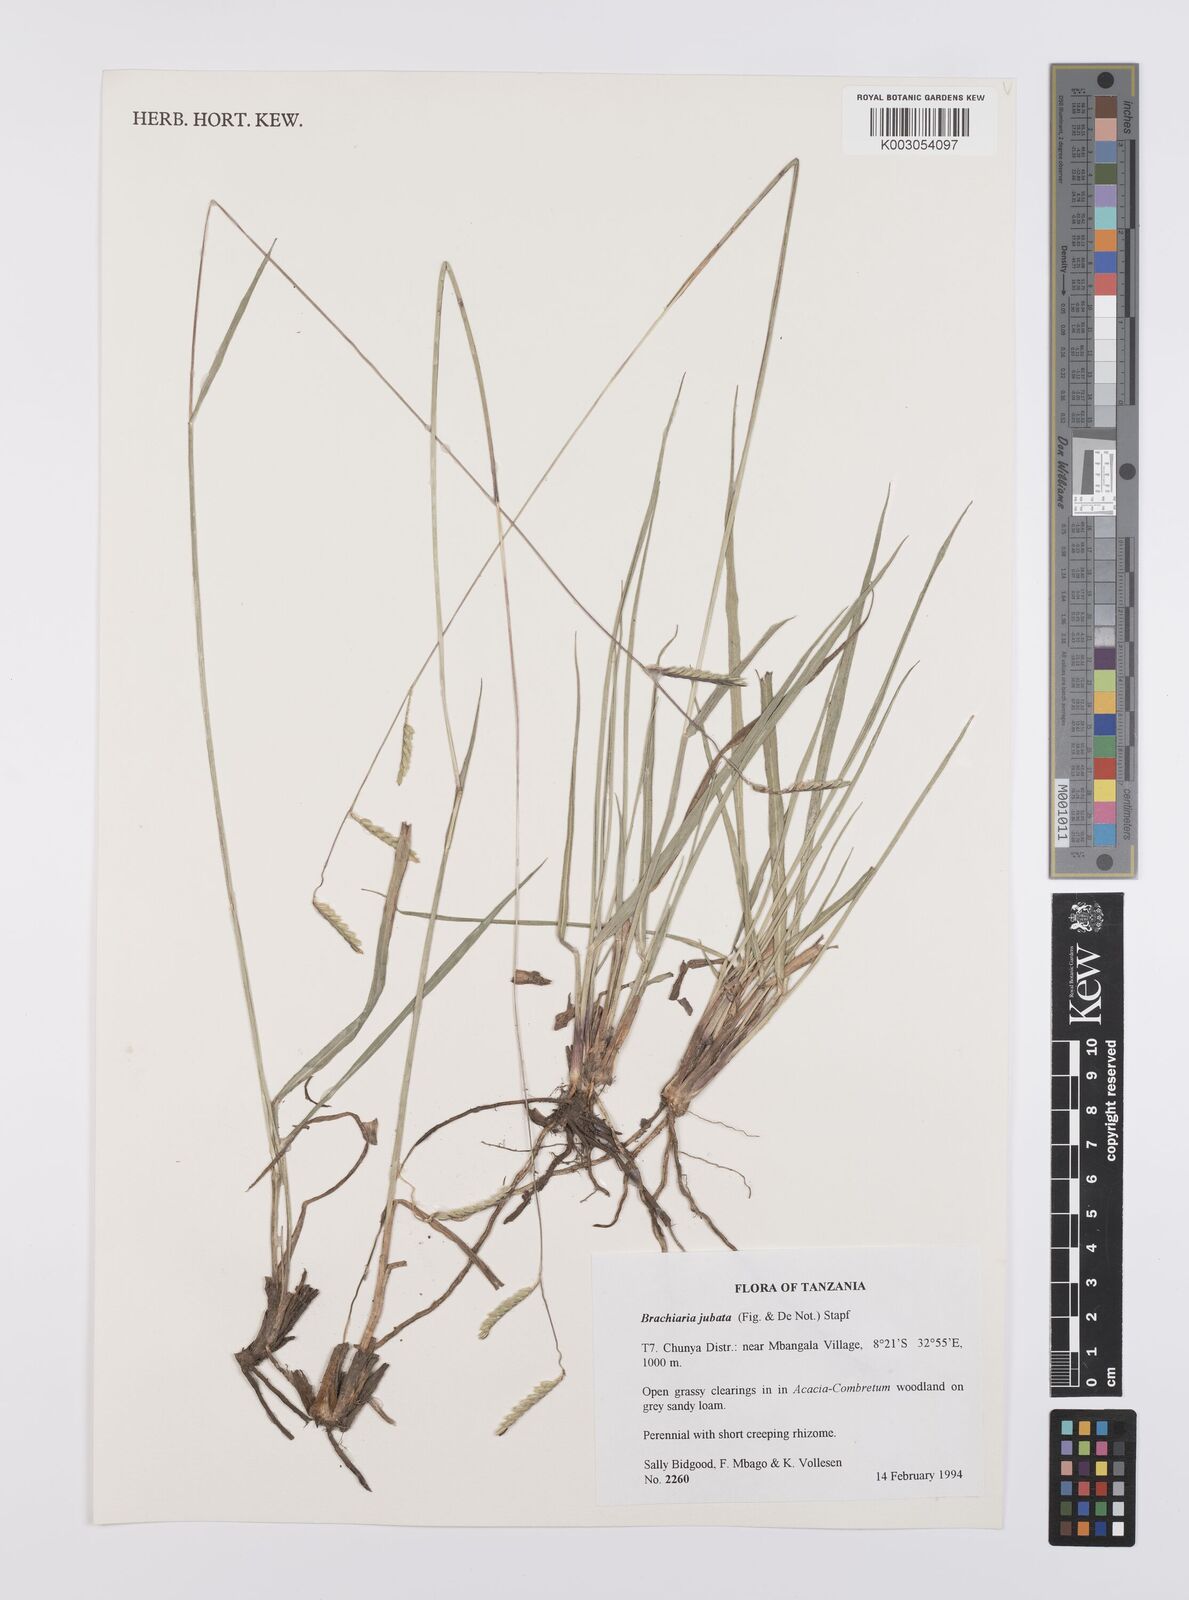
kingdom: Plantae
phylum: Tracheophyta
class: Liliopsida
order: Poales
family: Poaceae
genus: Urochloa
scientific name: Urochloa jubata
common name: Buffalograss
